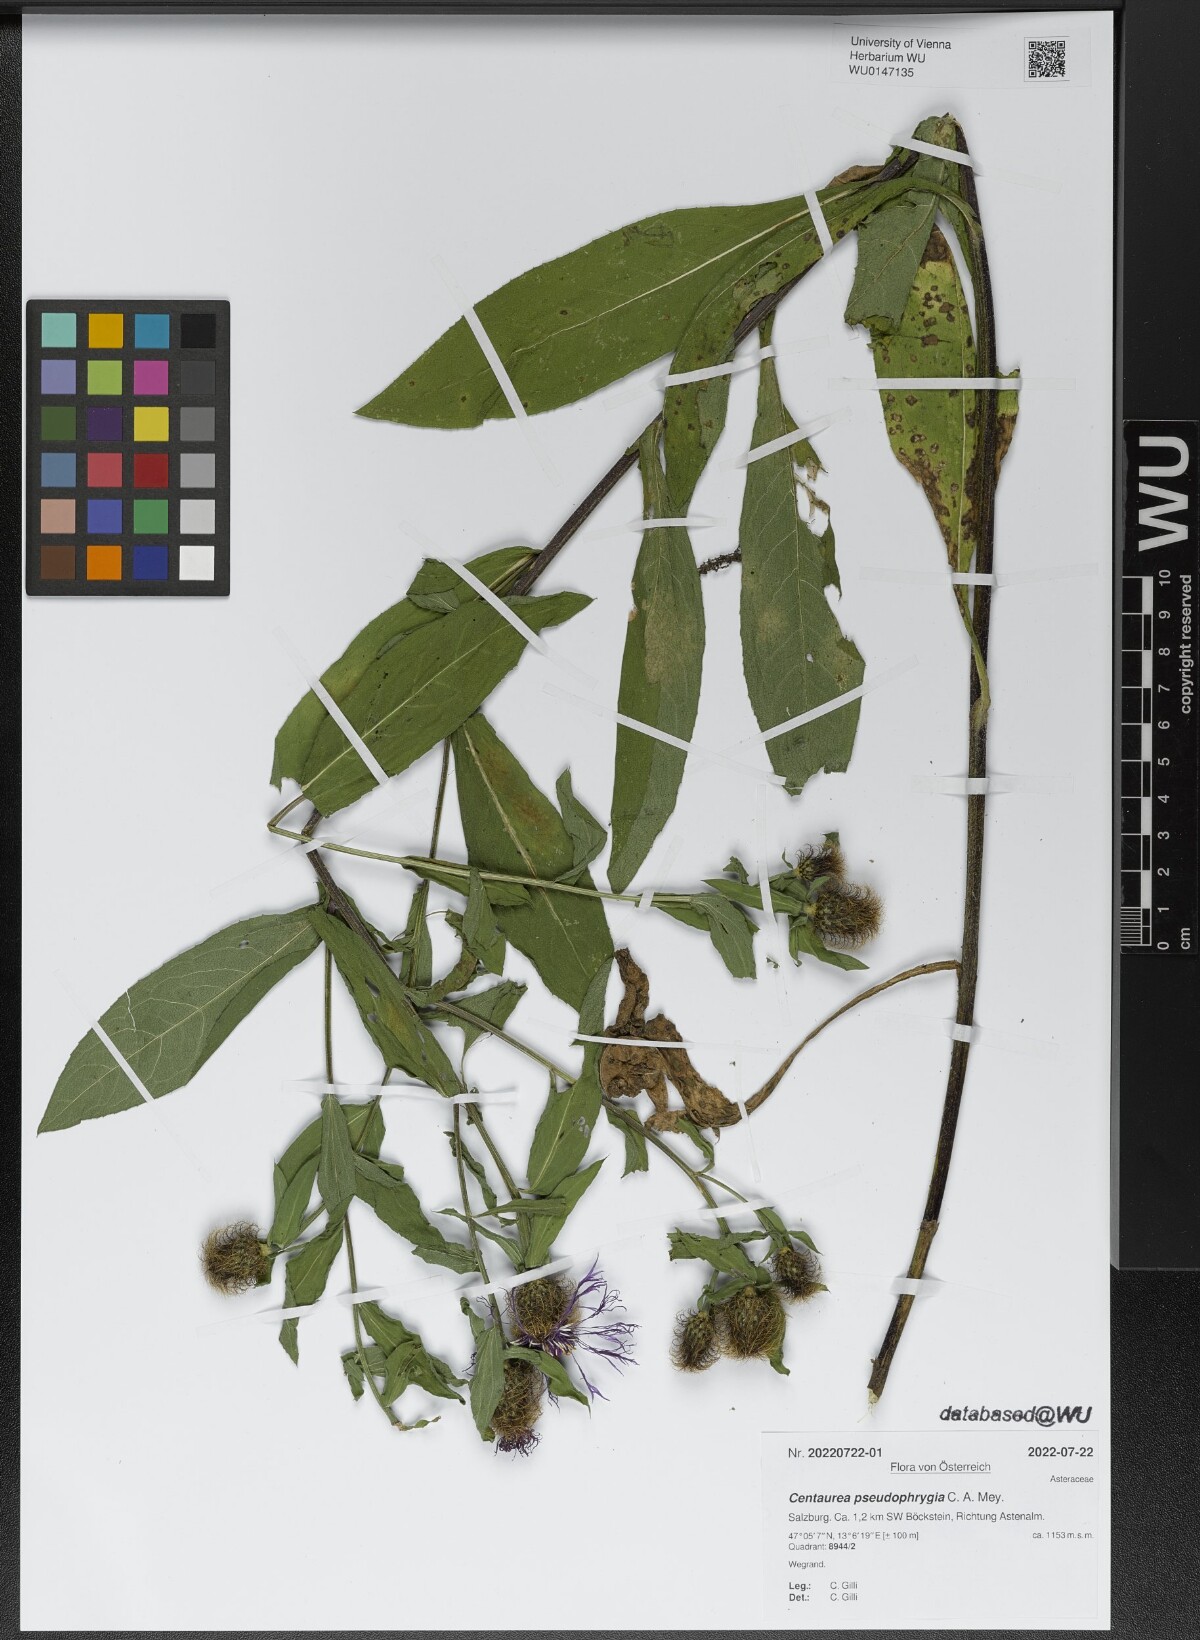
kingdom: Plantae
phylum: Tracheophyta
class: Magnoliopsida
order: Asterales
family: Asteraceae
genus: Centaurea
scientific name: Centaurea pseudophrygia
